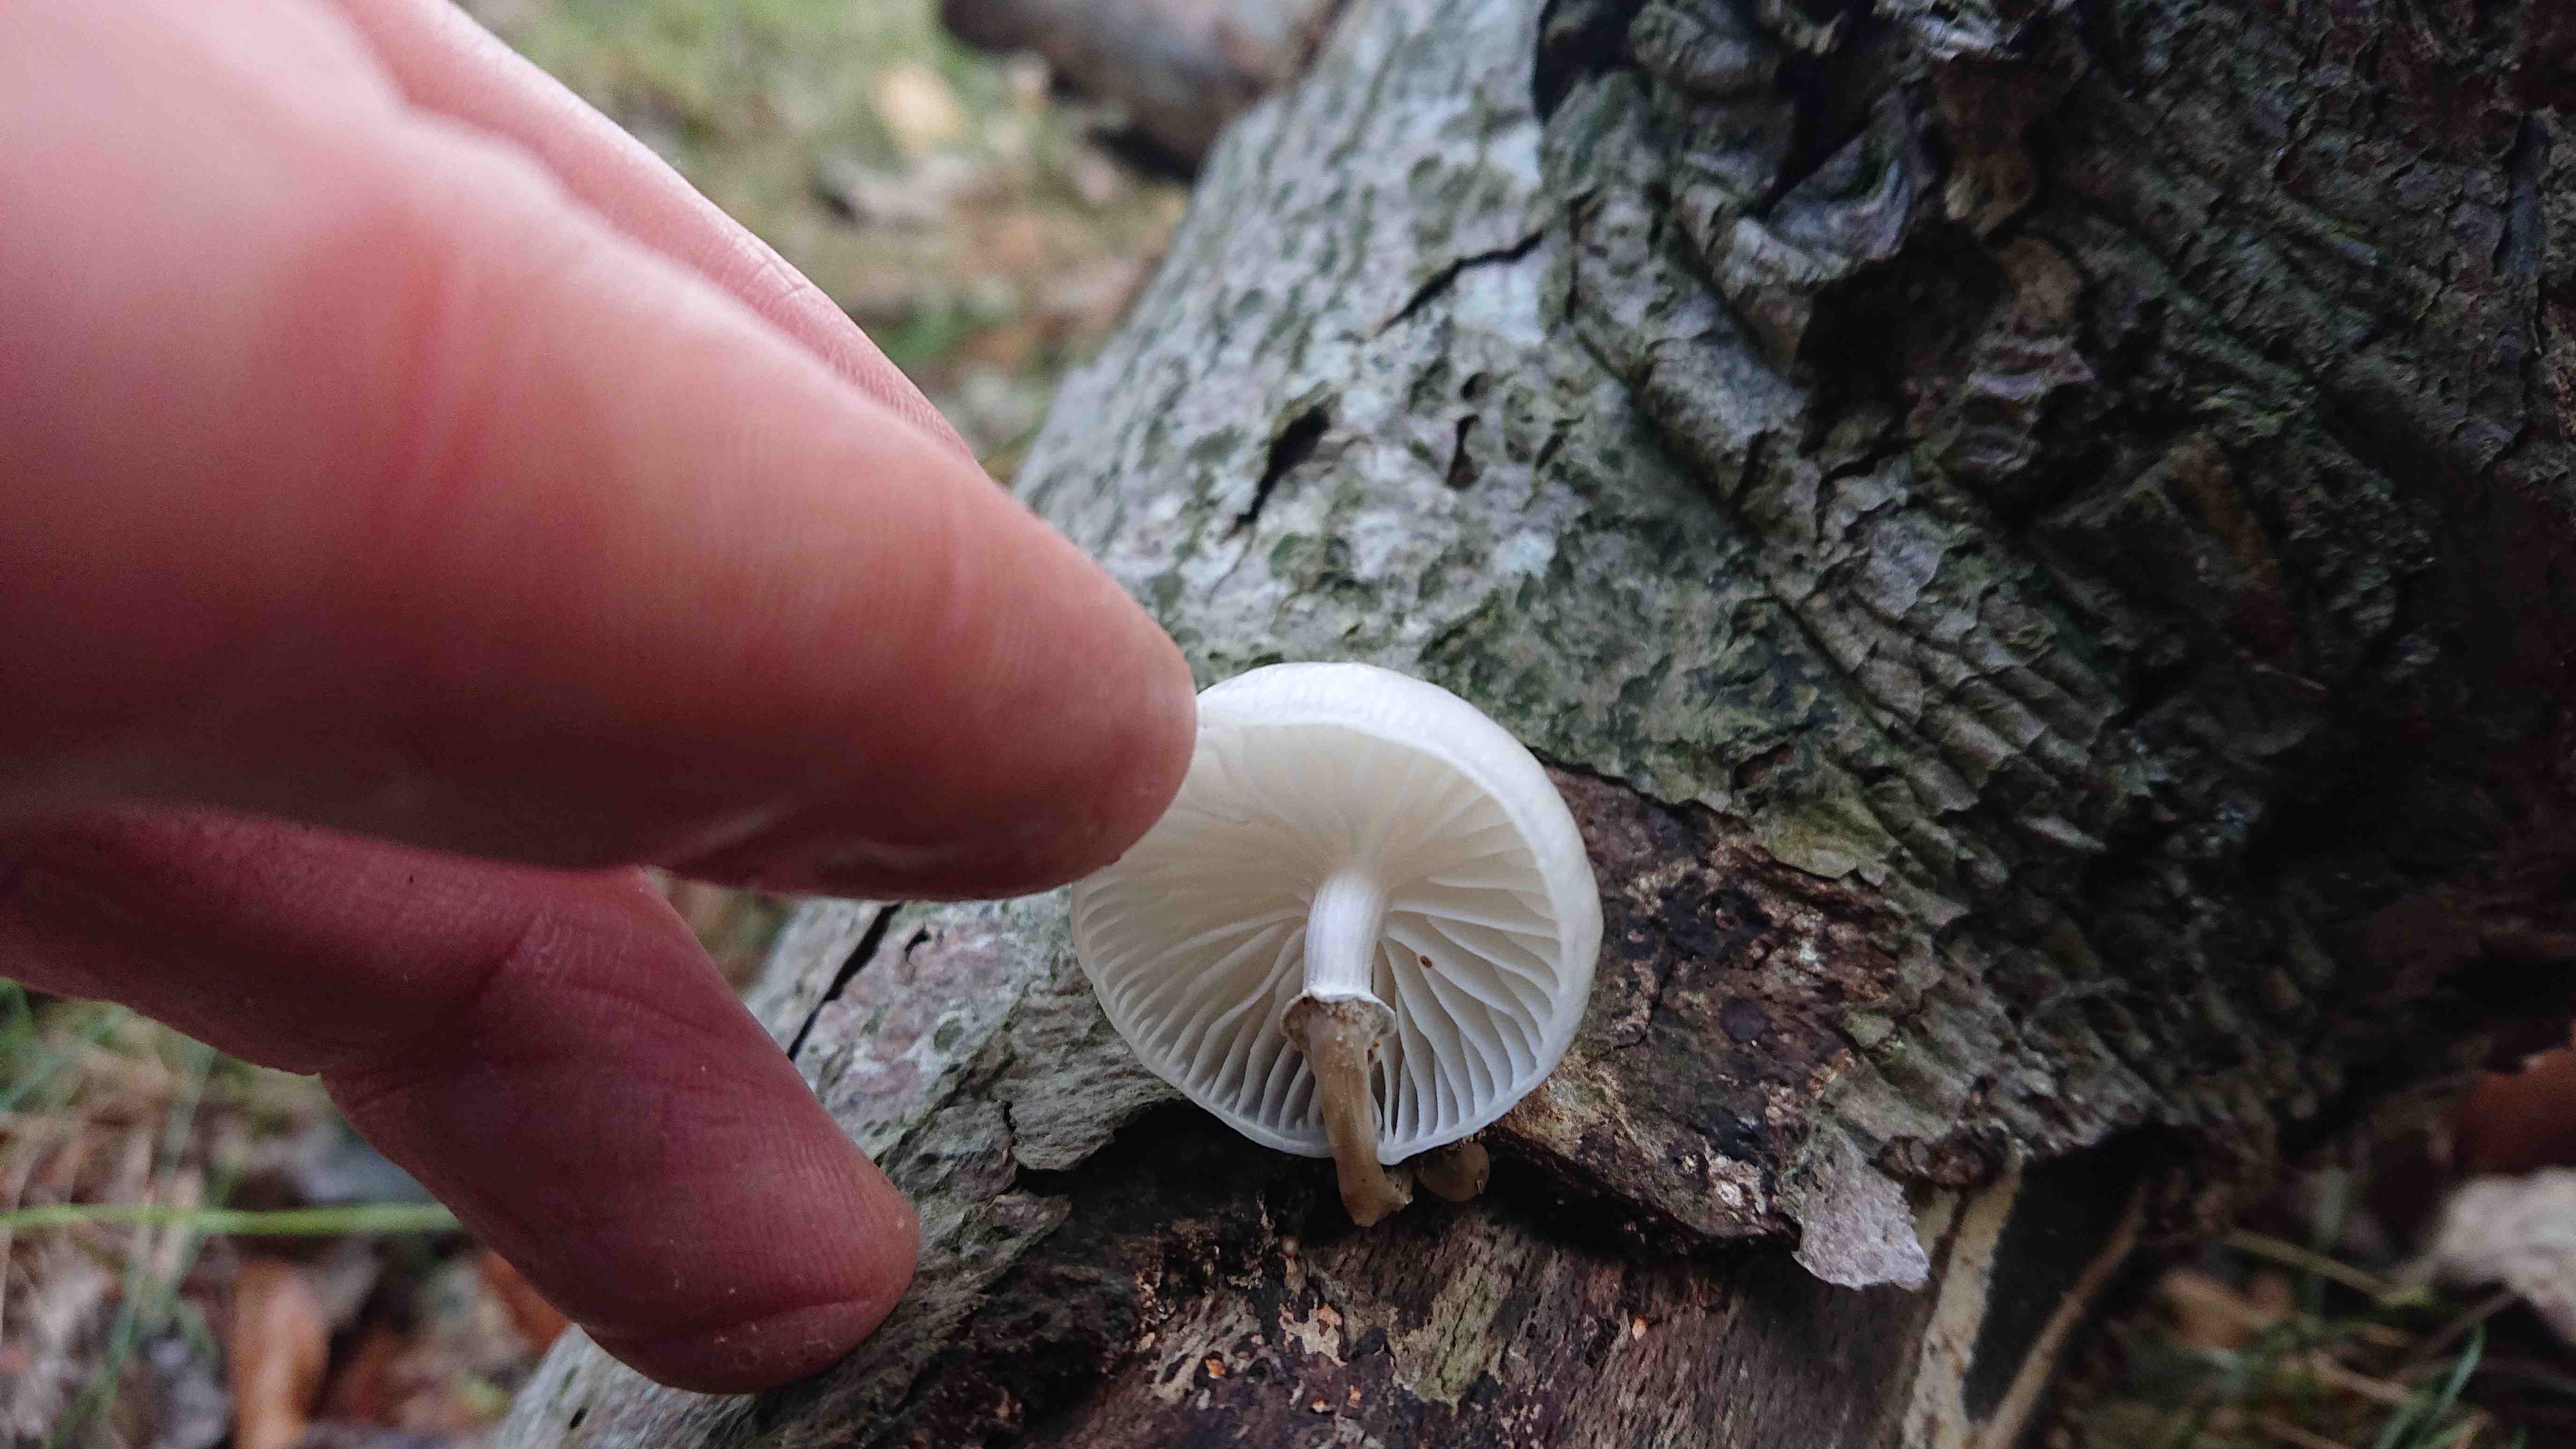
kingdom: Fungi
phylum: Basidiomycota
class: Agaricomycetes
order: Agaricales
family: Physalacriaceae
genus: Mucidula
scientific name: Mucidula mucida
